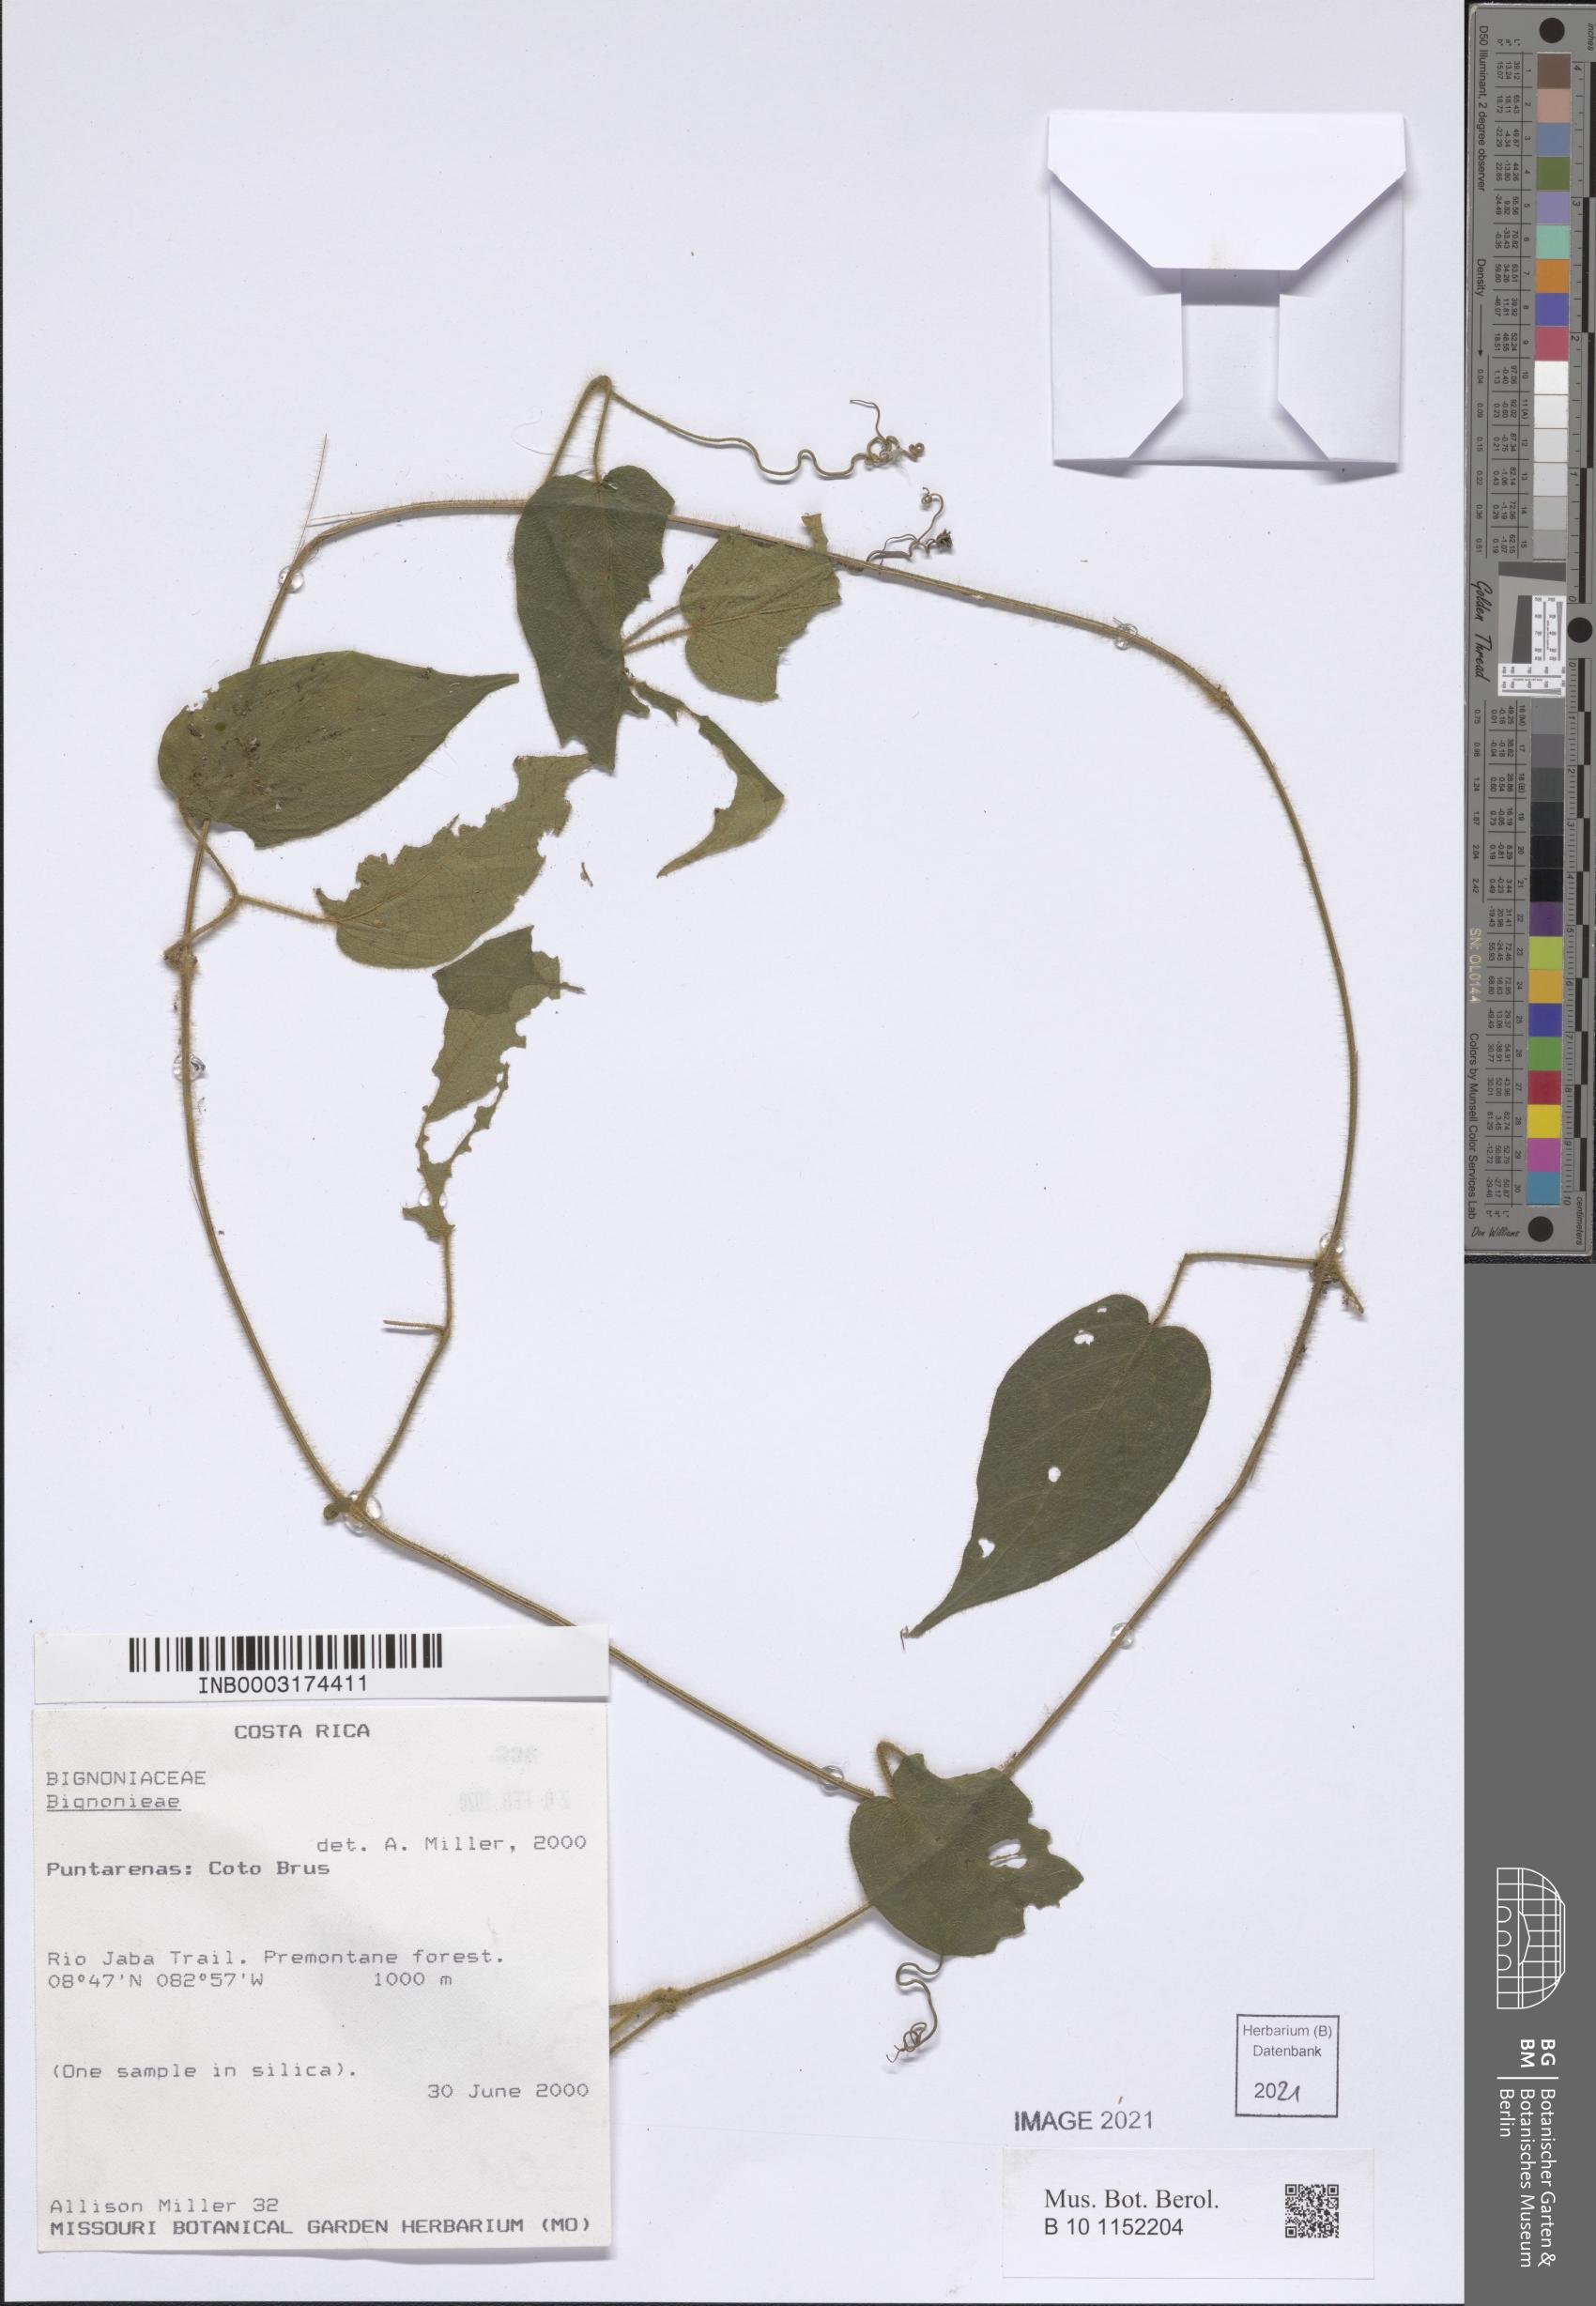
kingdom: Plantae
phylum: Tracheophyta
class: Magnoliopsida
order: Lamiales
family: Bignoniaceae
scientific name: Bignoniaceae
